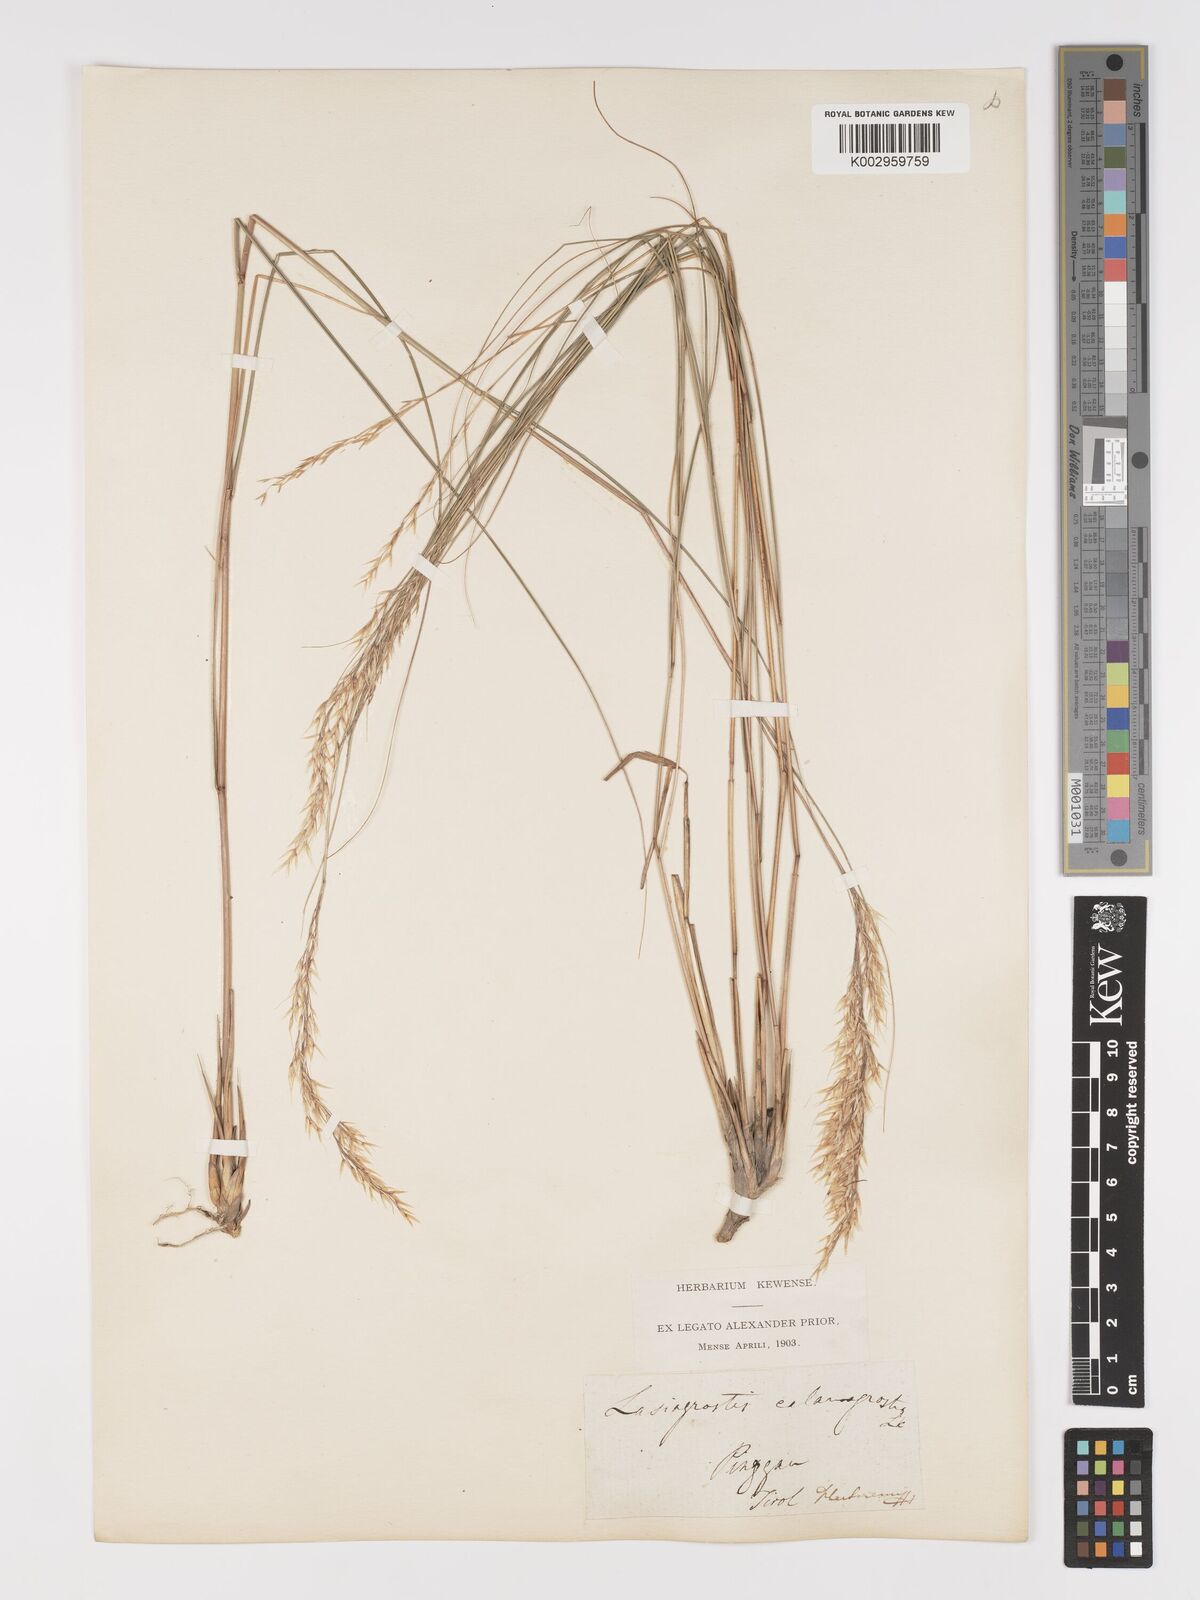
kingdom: Plantae
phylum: Tracheophyta
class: Liliopsida
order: Poales
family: Poaceae
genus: Achnatherum
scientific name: Achnatherum calamagrostis
